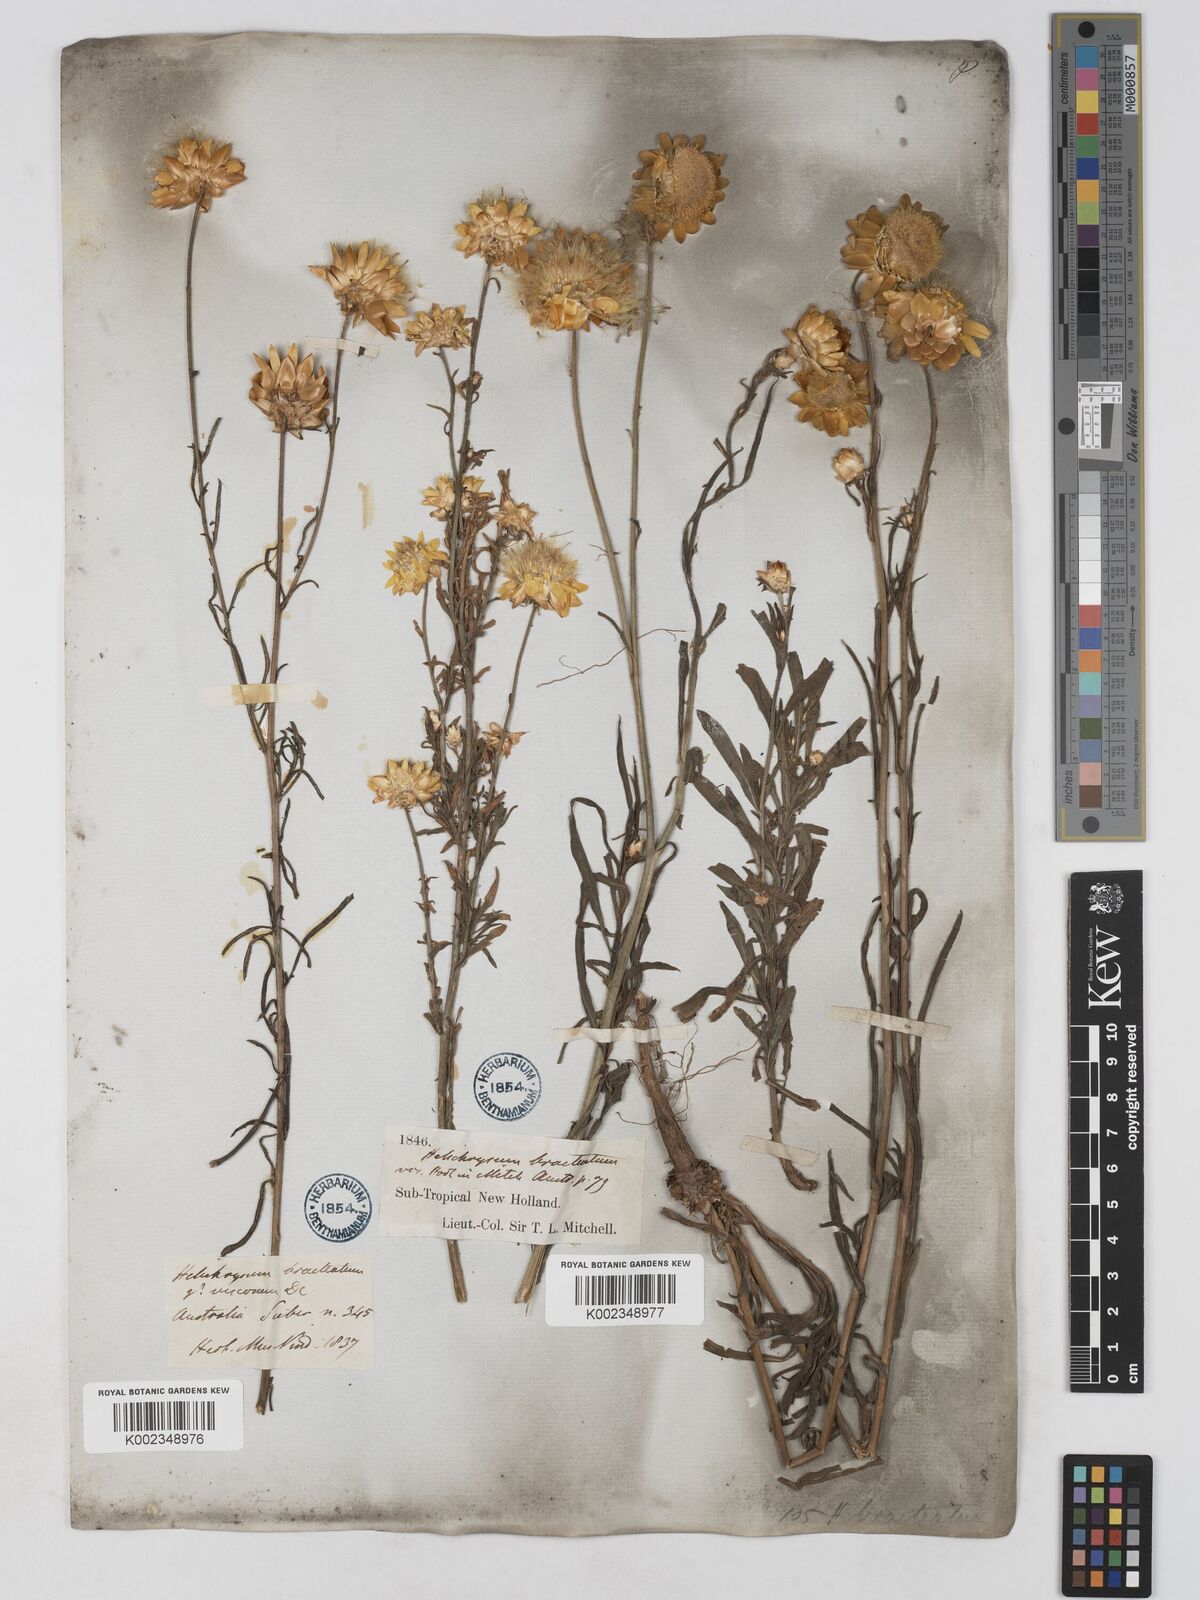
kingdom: Plantae
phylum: Tracheophyta
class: Magnoliopsida
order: Asterales
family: Asteraceae
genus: Xerochrysum
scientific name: Xerochrysum bracteatum
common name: Bracted strawflower
